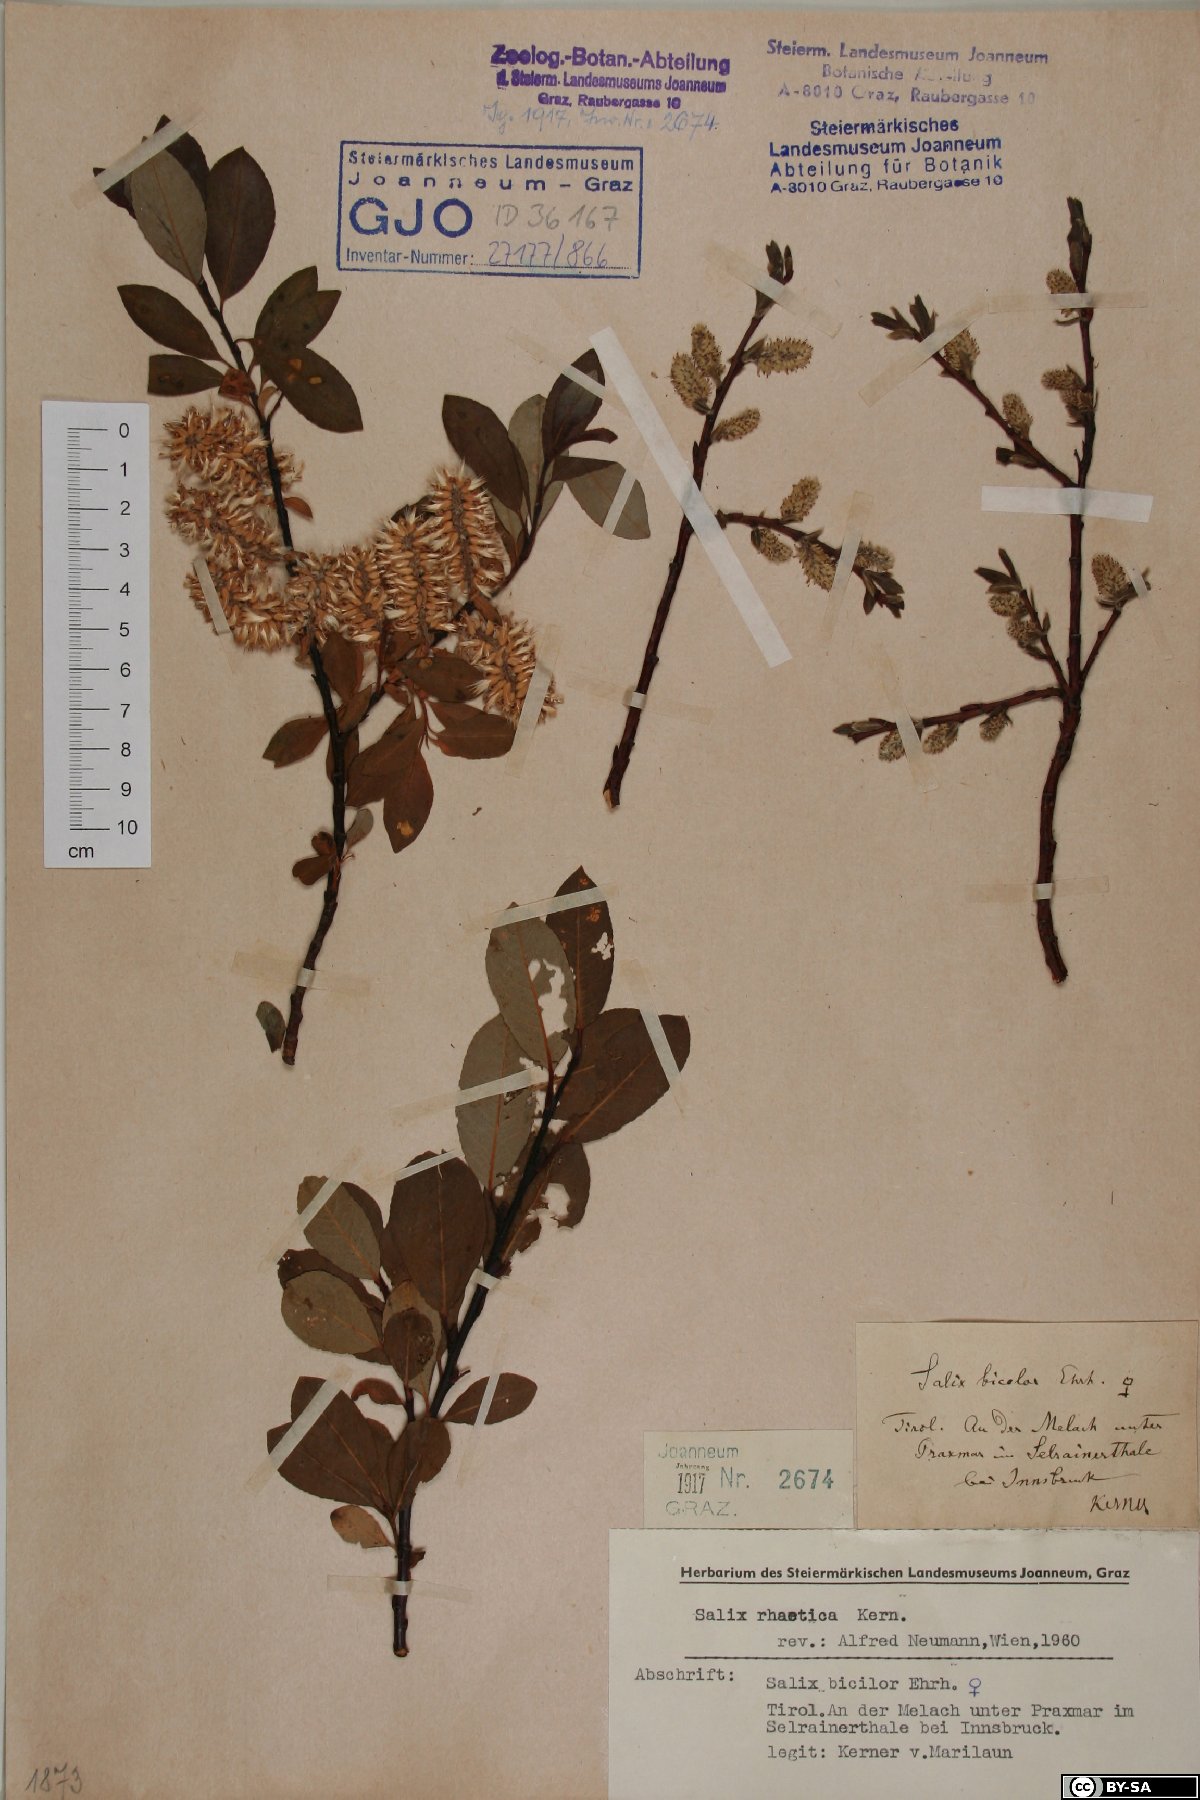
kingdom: Plantae
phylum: Tracheophyta
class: Magnoliopsida
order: Malpighiales
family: Salicaceae
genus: Salix
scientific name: Salix hegetschweileri
